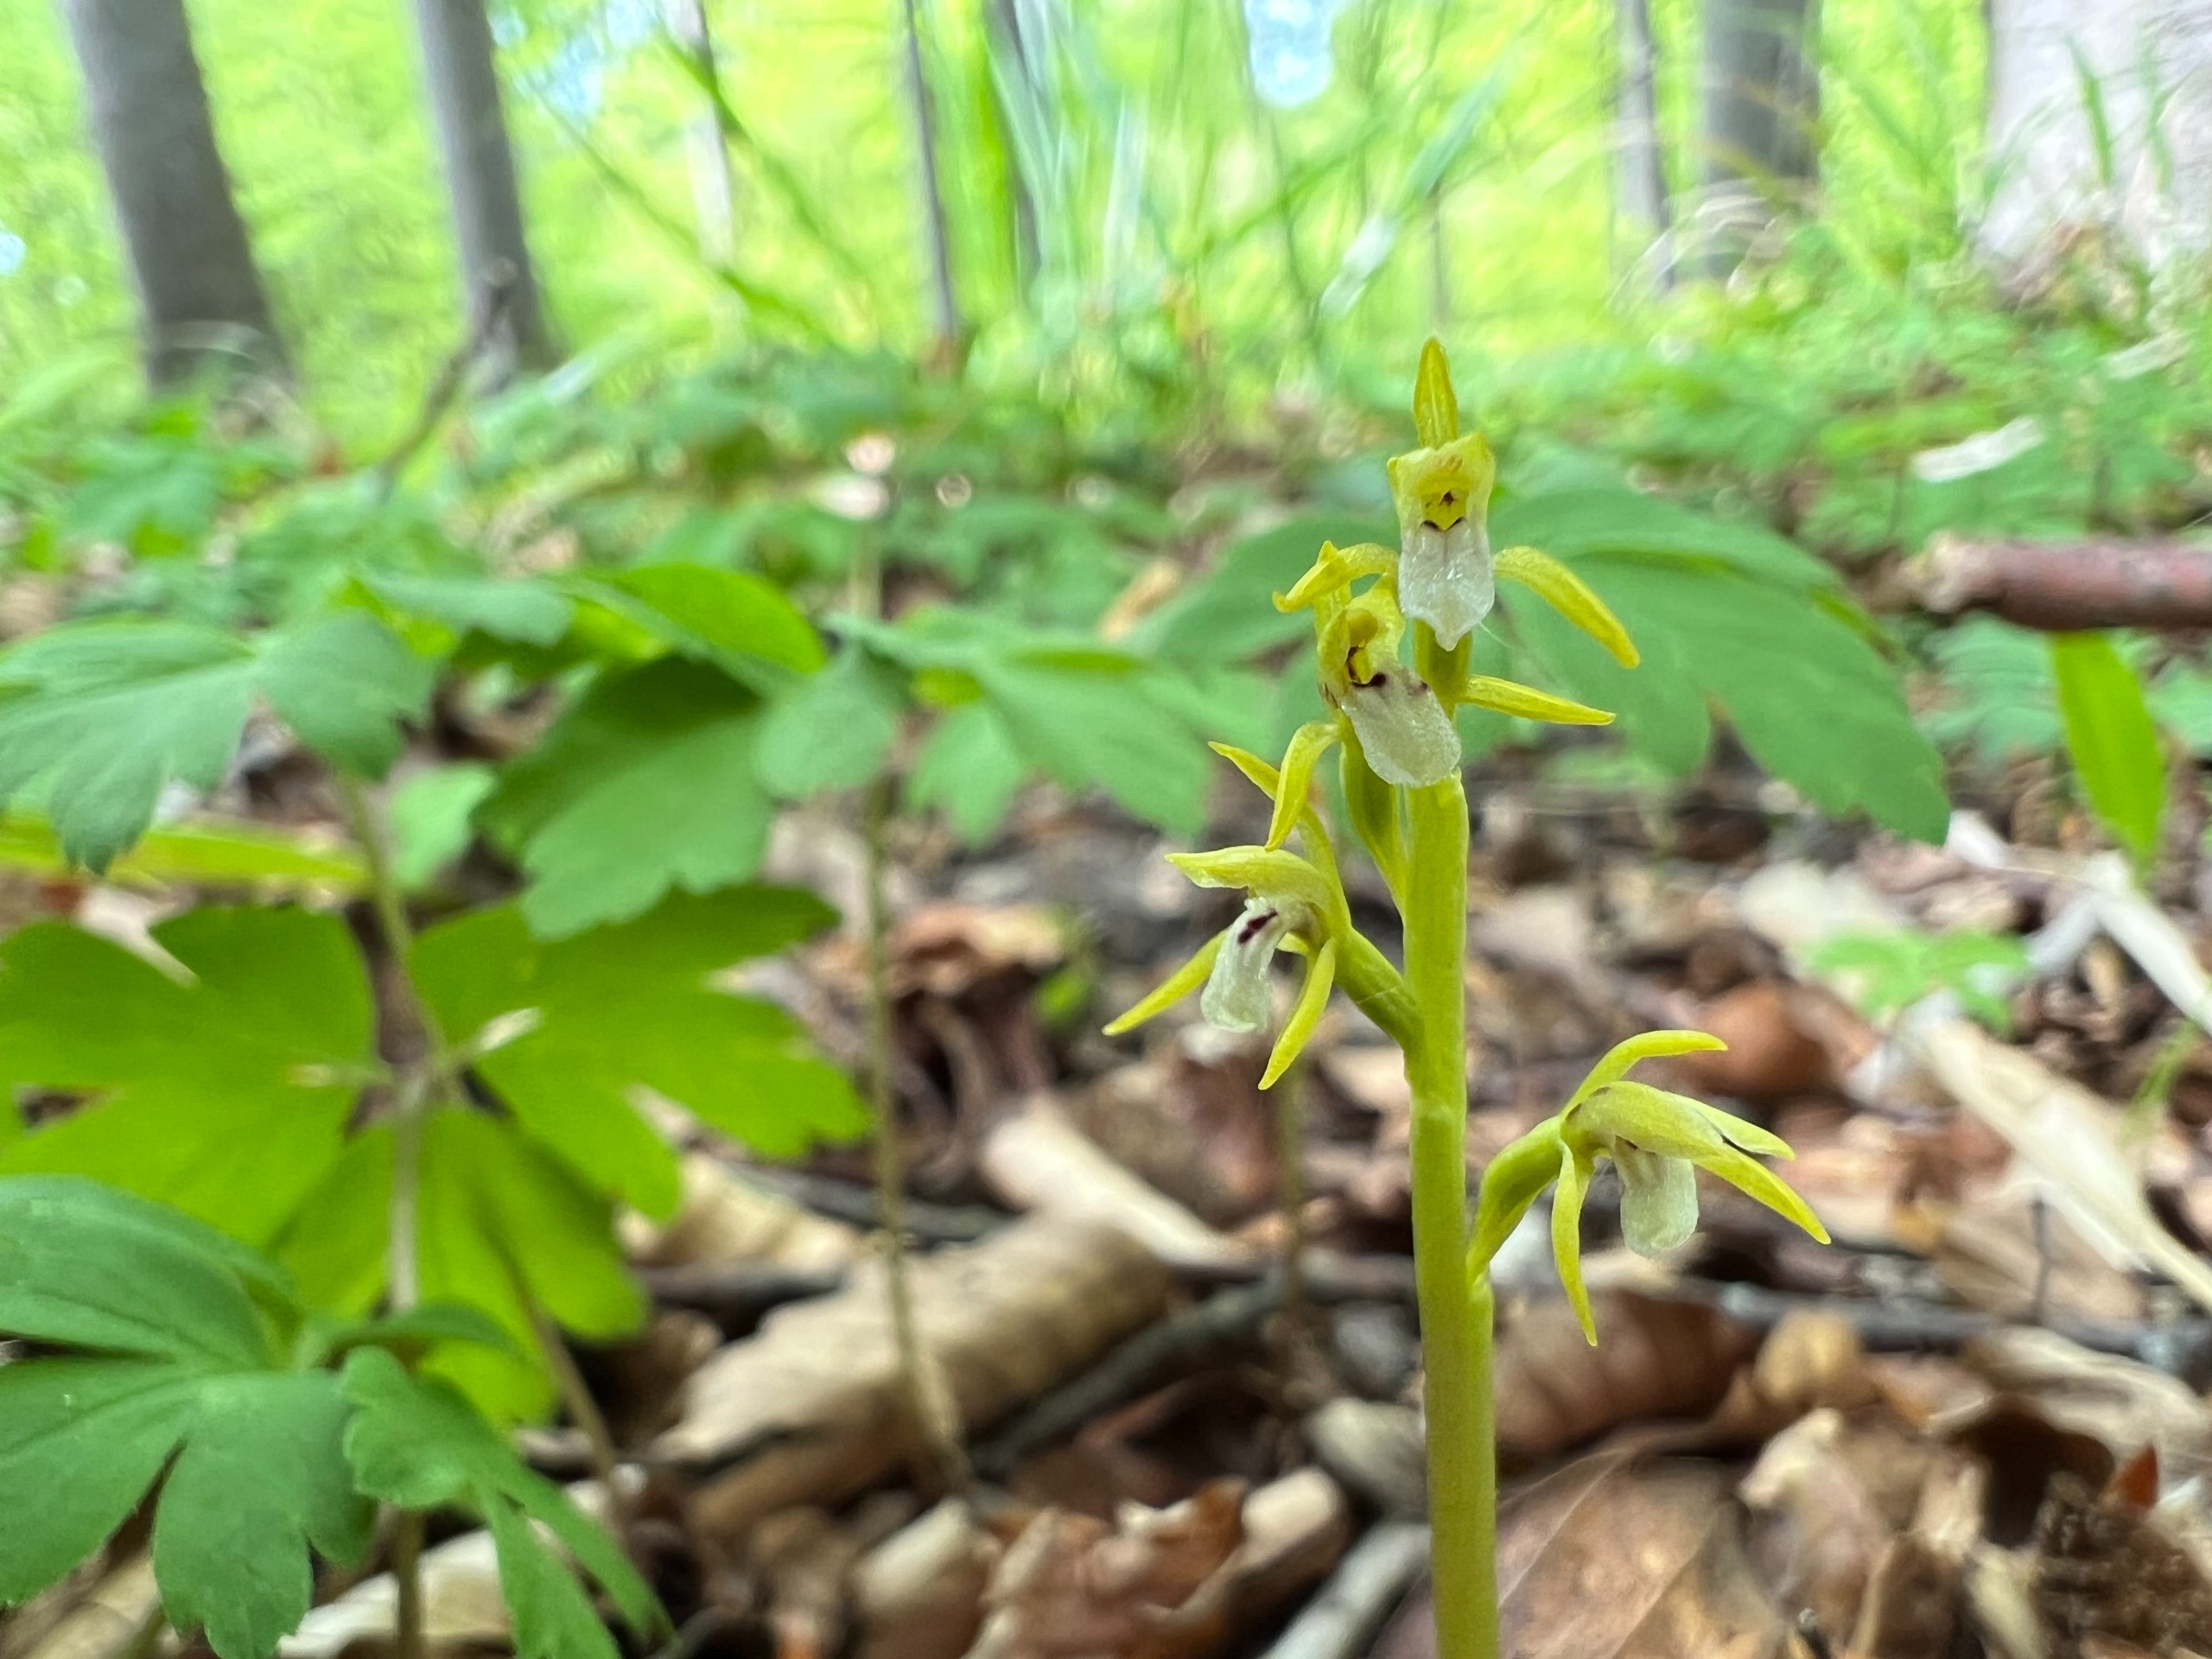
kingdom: Plantae
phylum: Tracheophyta
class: Liliopsida
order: Asparagales
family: Orchidaceae
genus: Corallorhiza
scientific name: Corallorhiza trifida
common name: Koralrod
